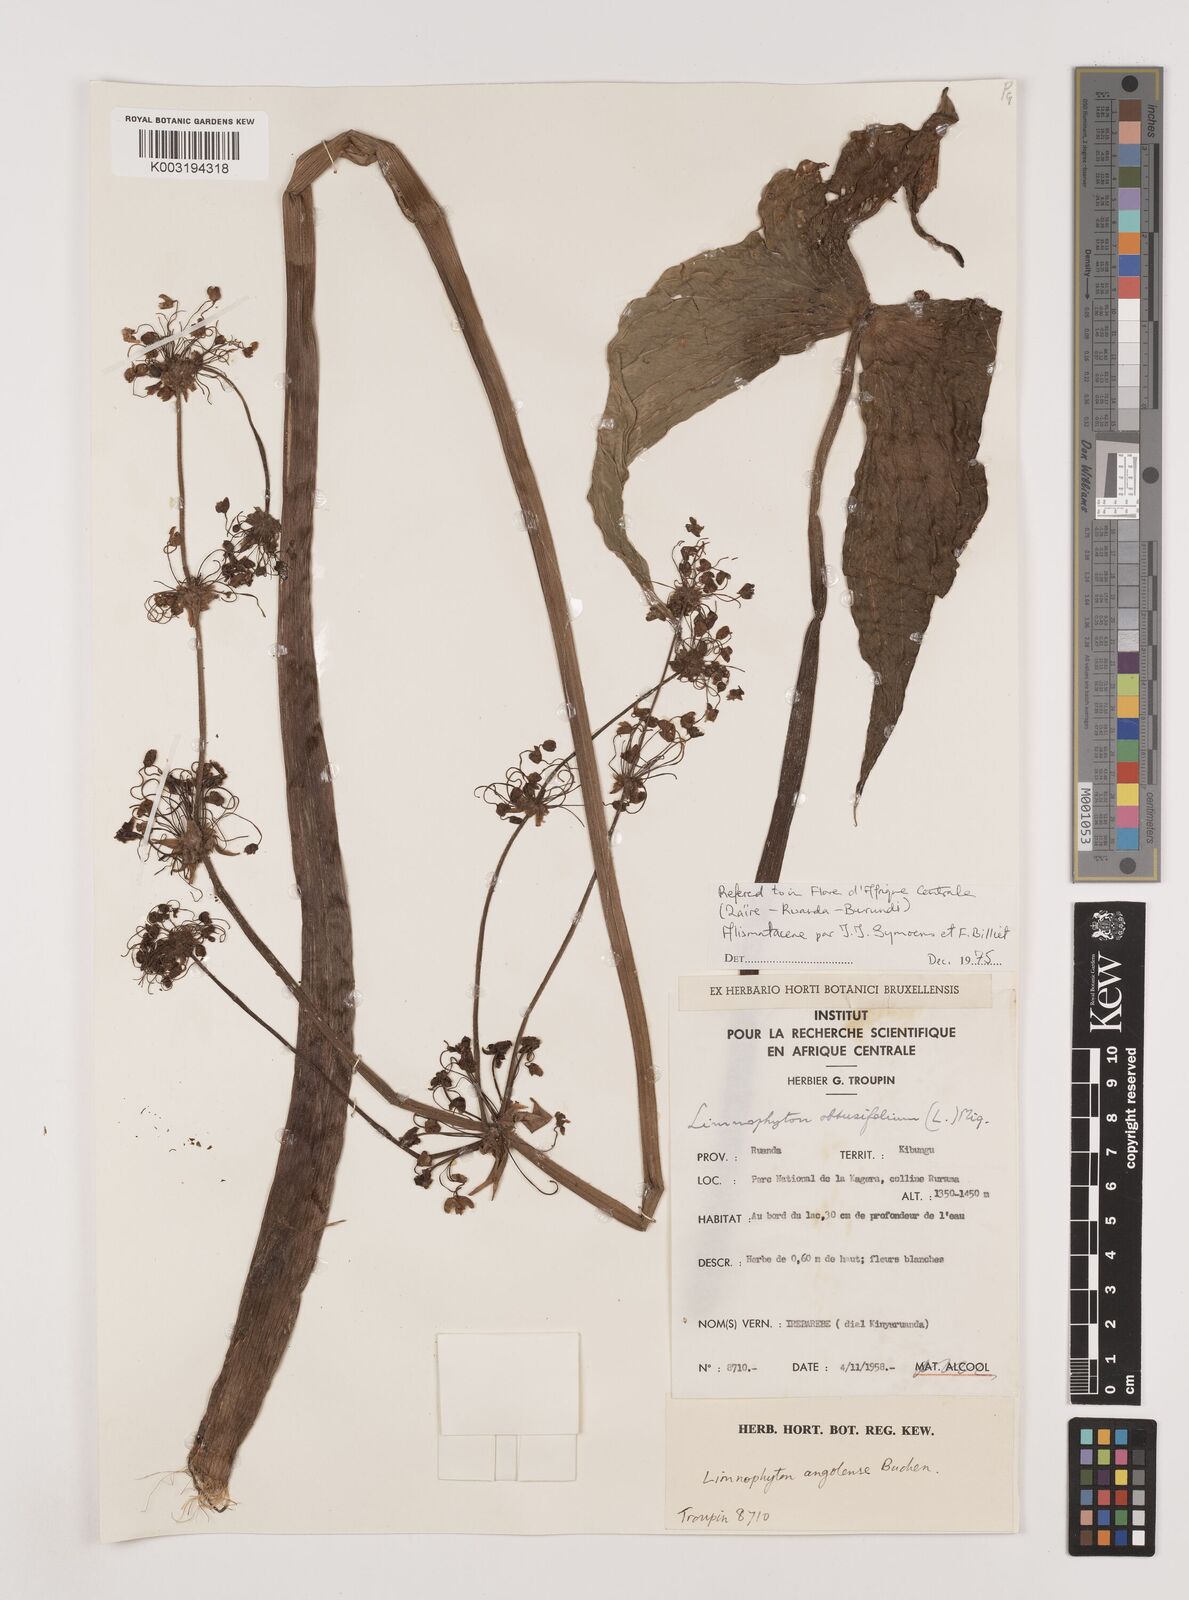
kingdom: Plantae
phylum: Tracheophyta
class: Liliopsida
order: Alismatales
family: Alismataceae
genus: Limnophyton
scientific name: Limnophyton angolense
